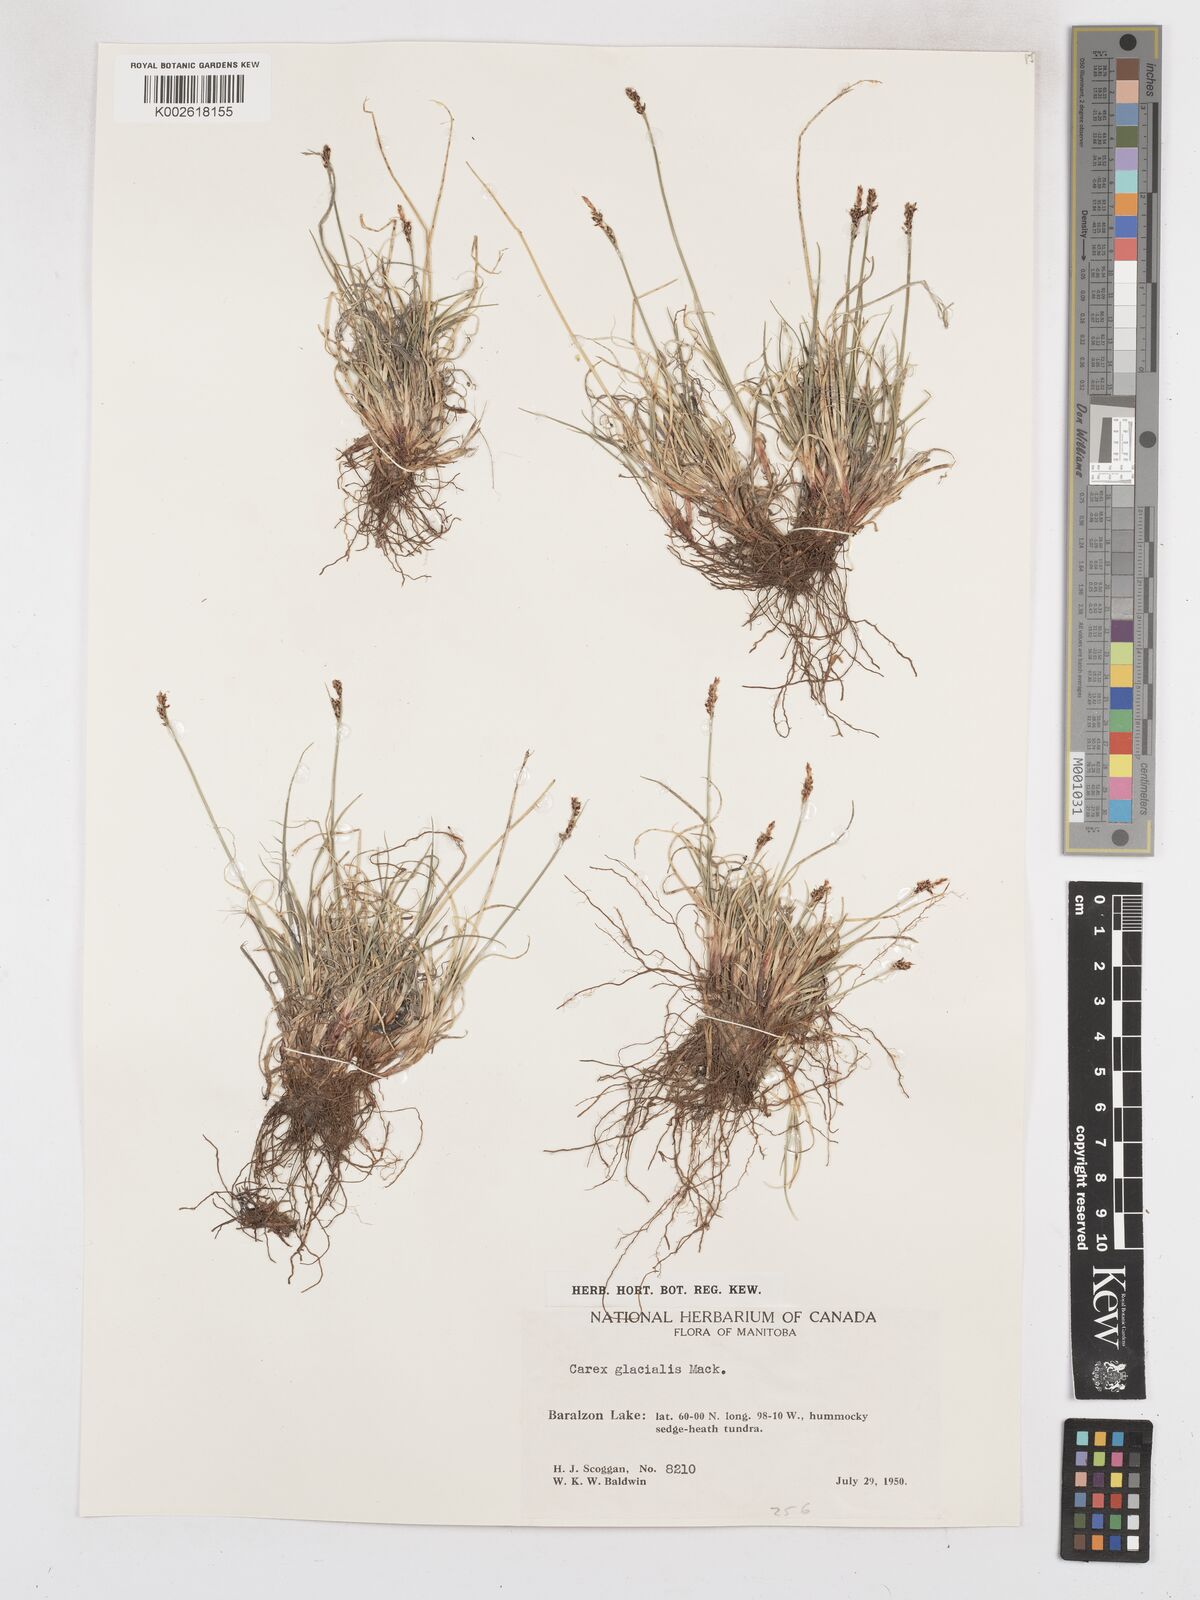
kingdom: Plantae
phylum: Tracheophyta
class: Liliopsida
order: Poales
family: Cyperaceae
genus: Carex
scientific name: Carex glacialis
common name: Newfoundland sedge
